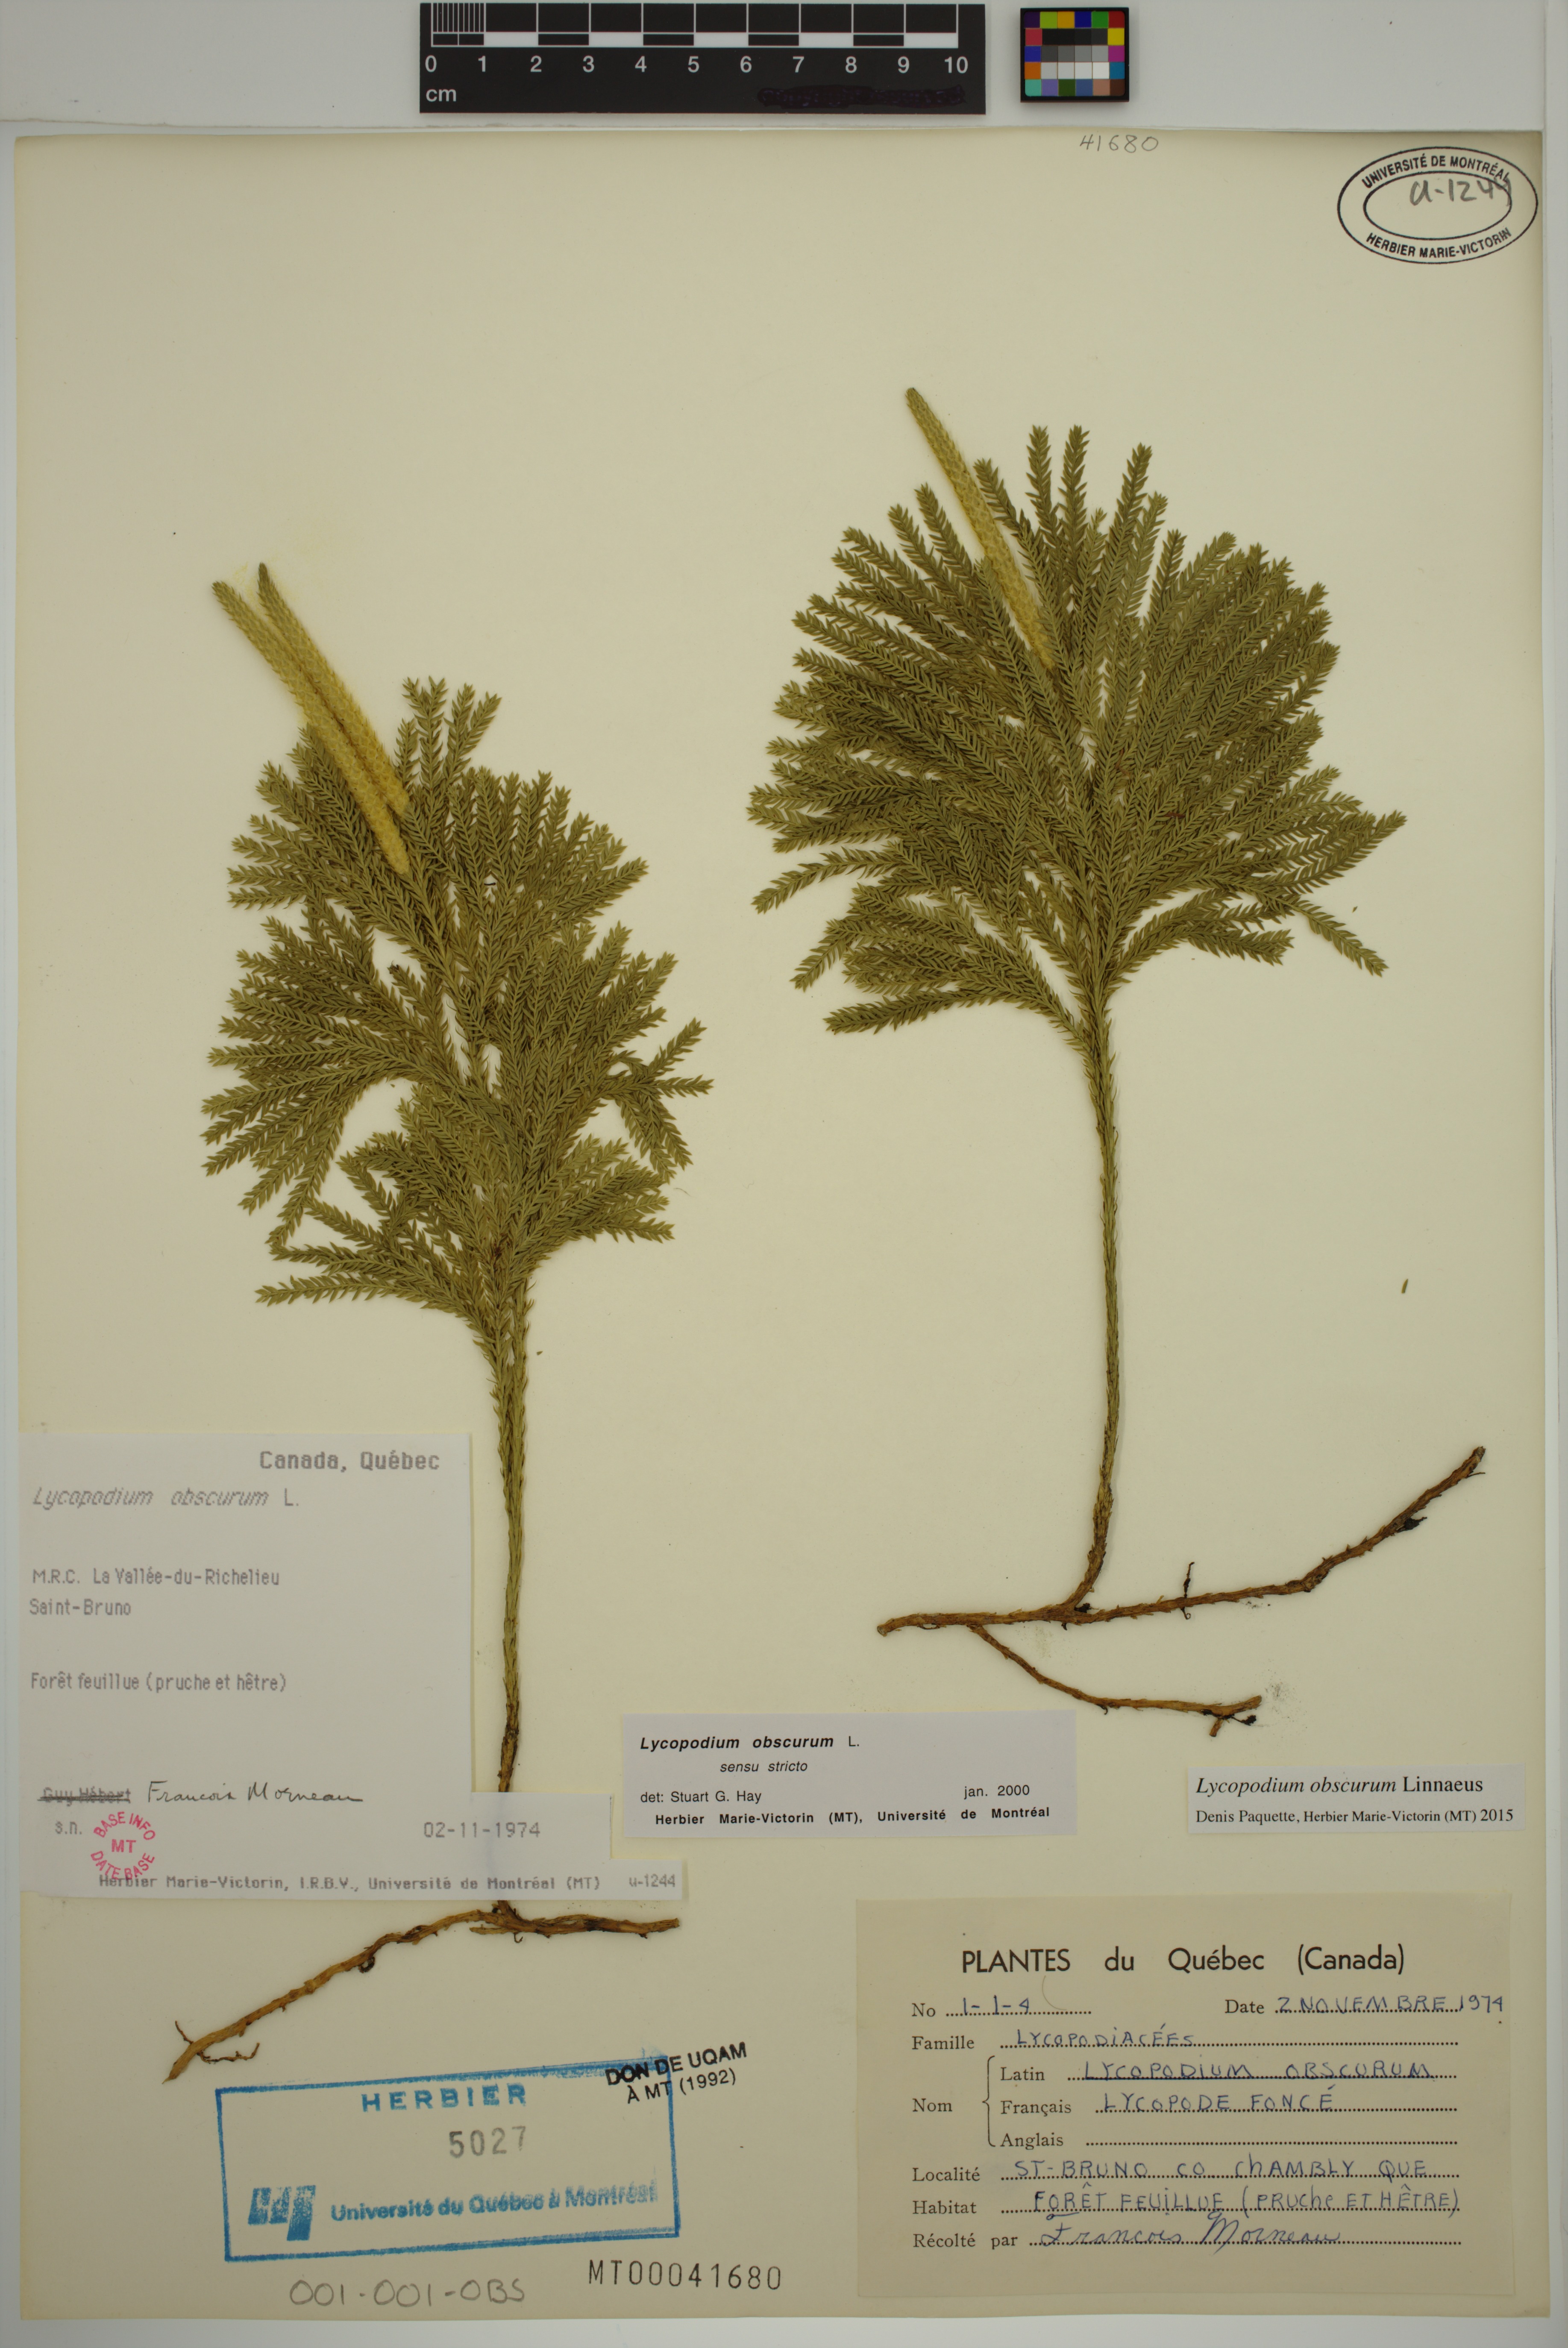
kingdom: Plantae
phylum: Tracheophyta
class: Lycopodiopsida
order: Lycopodiales
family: Lycopodiaceae
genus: Dendrolycopodium
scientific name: Dendrolycopodium obscurum
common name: Common ground-pine
